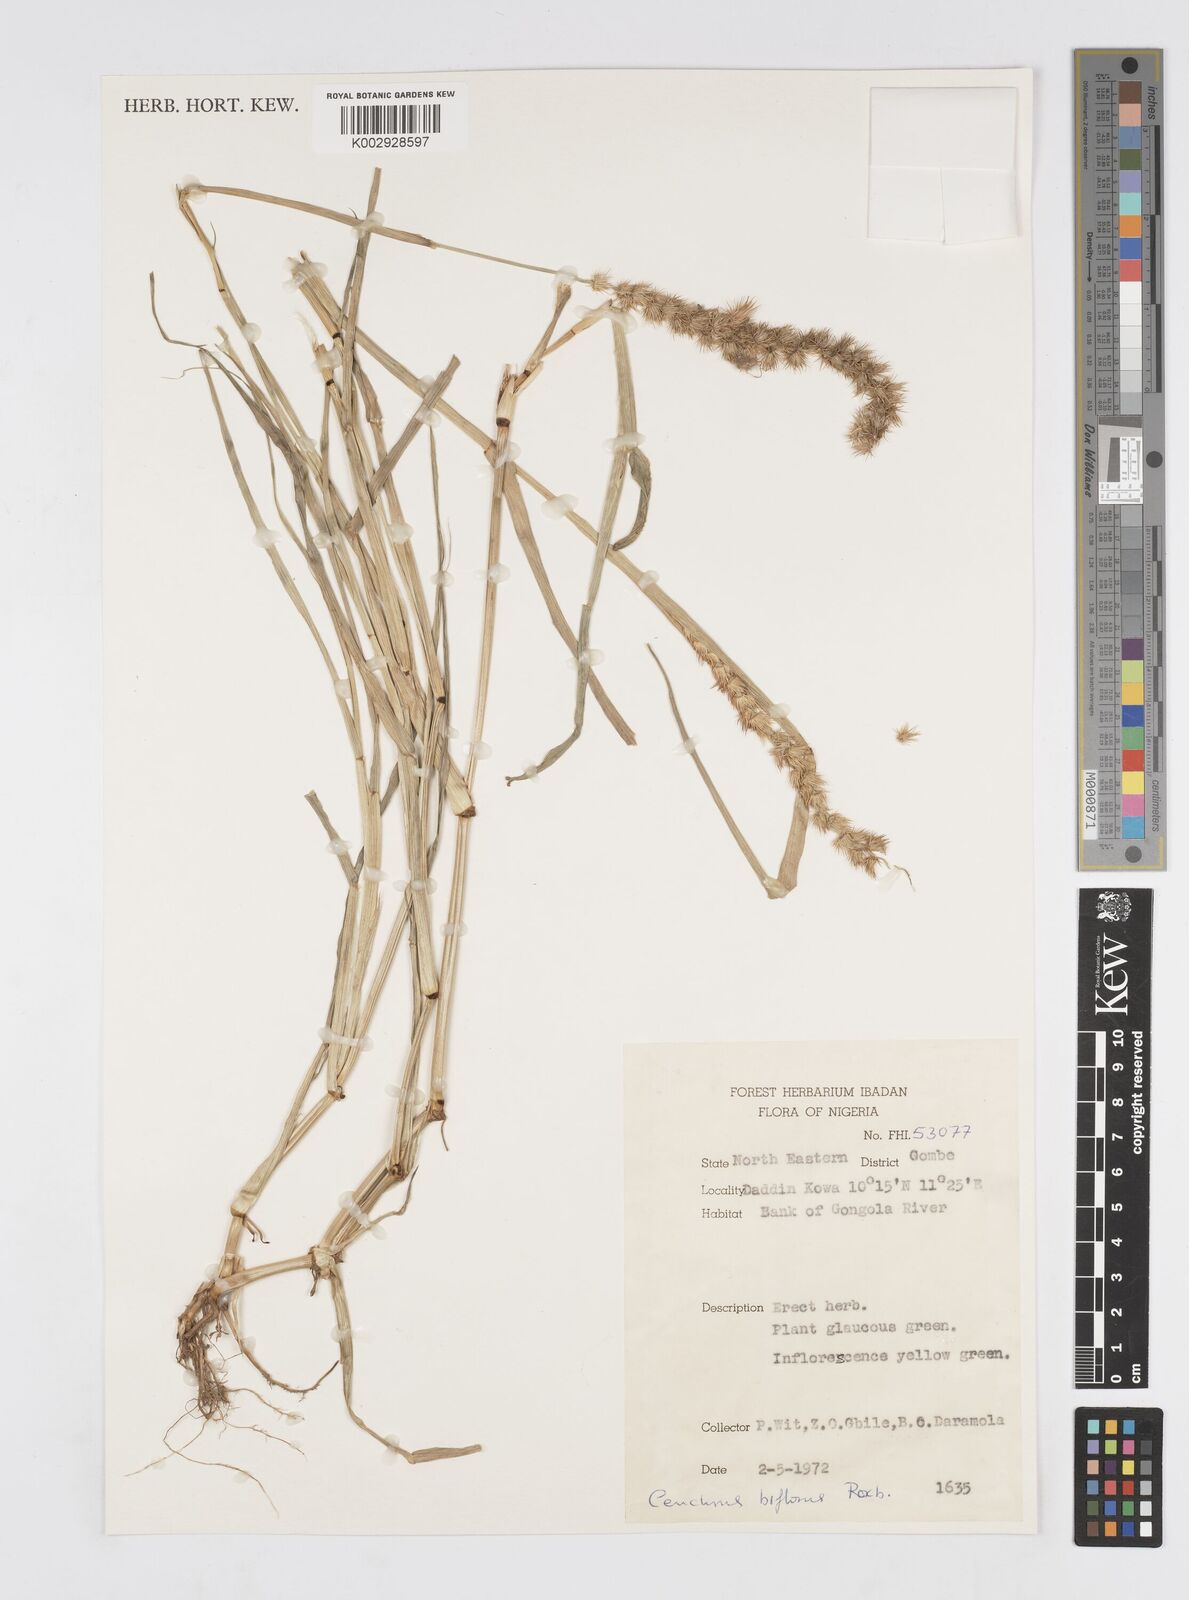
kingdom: Plantae
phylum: Tracheophyta
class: Liliopsida
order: Poales
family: Poaceae
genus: Cenchrus
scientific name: Cenchrus biflorus
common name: Indian sandbur
